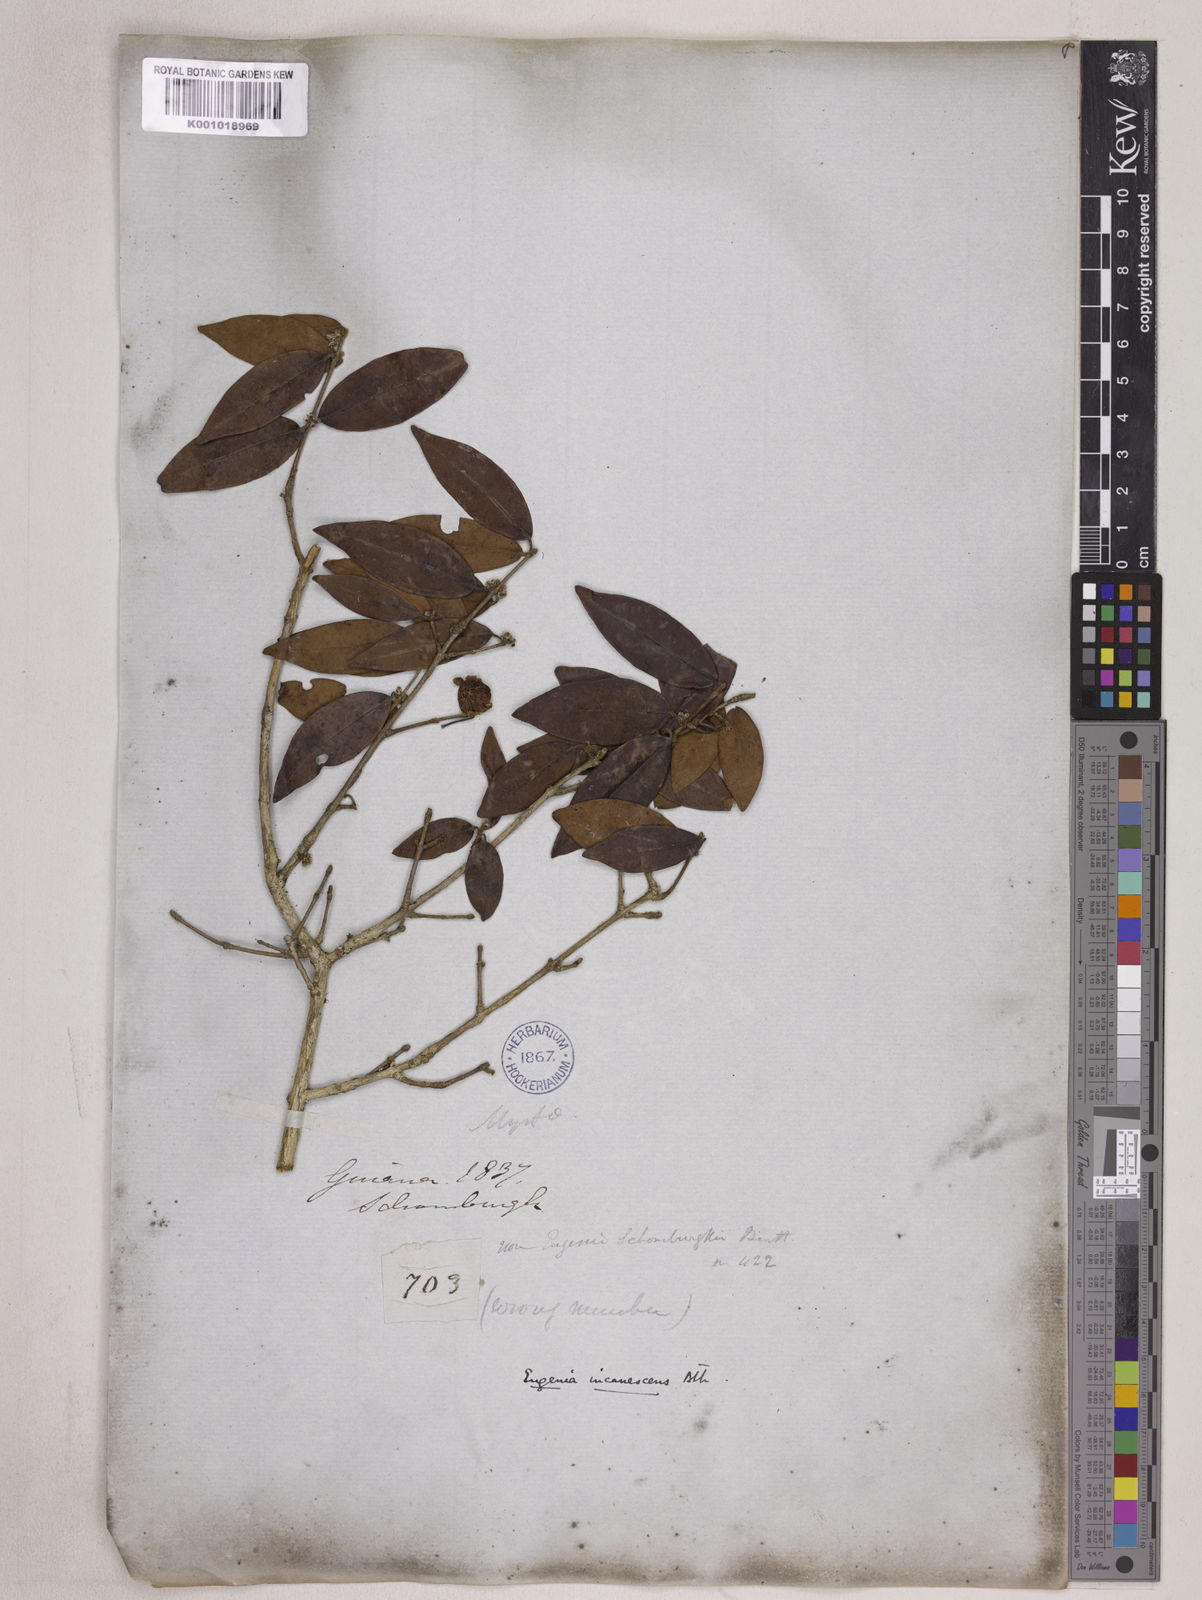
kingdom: Plantae
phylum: Tracheophyta
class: Magnoliopsida
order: Myrtales
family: Myrtaceae
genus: Eugenia
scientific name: Eugenia incanescens
